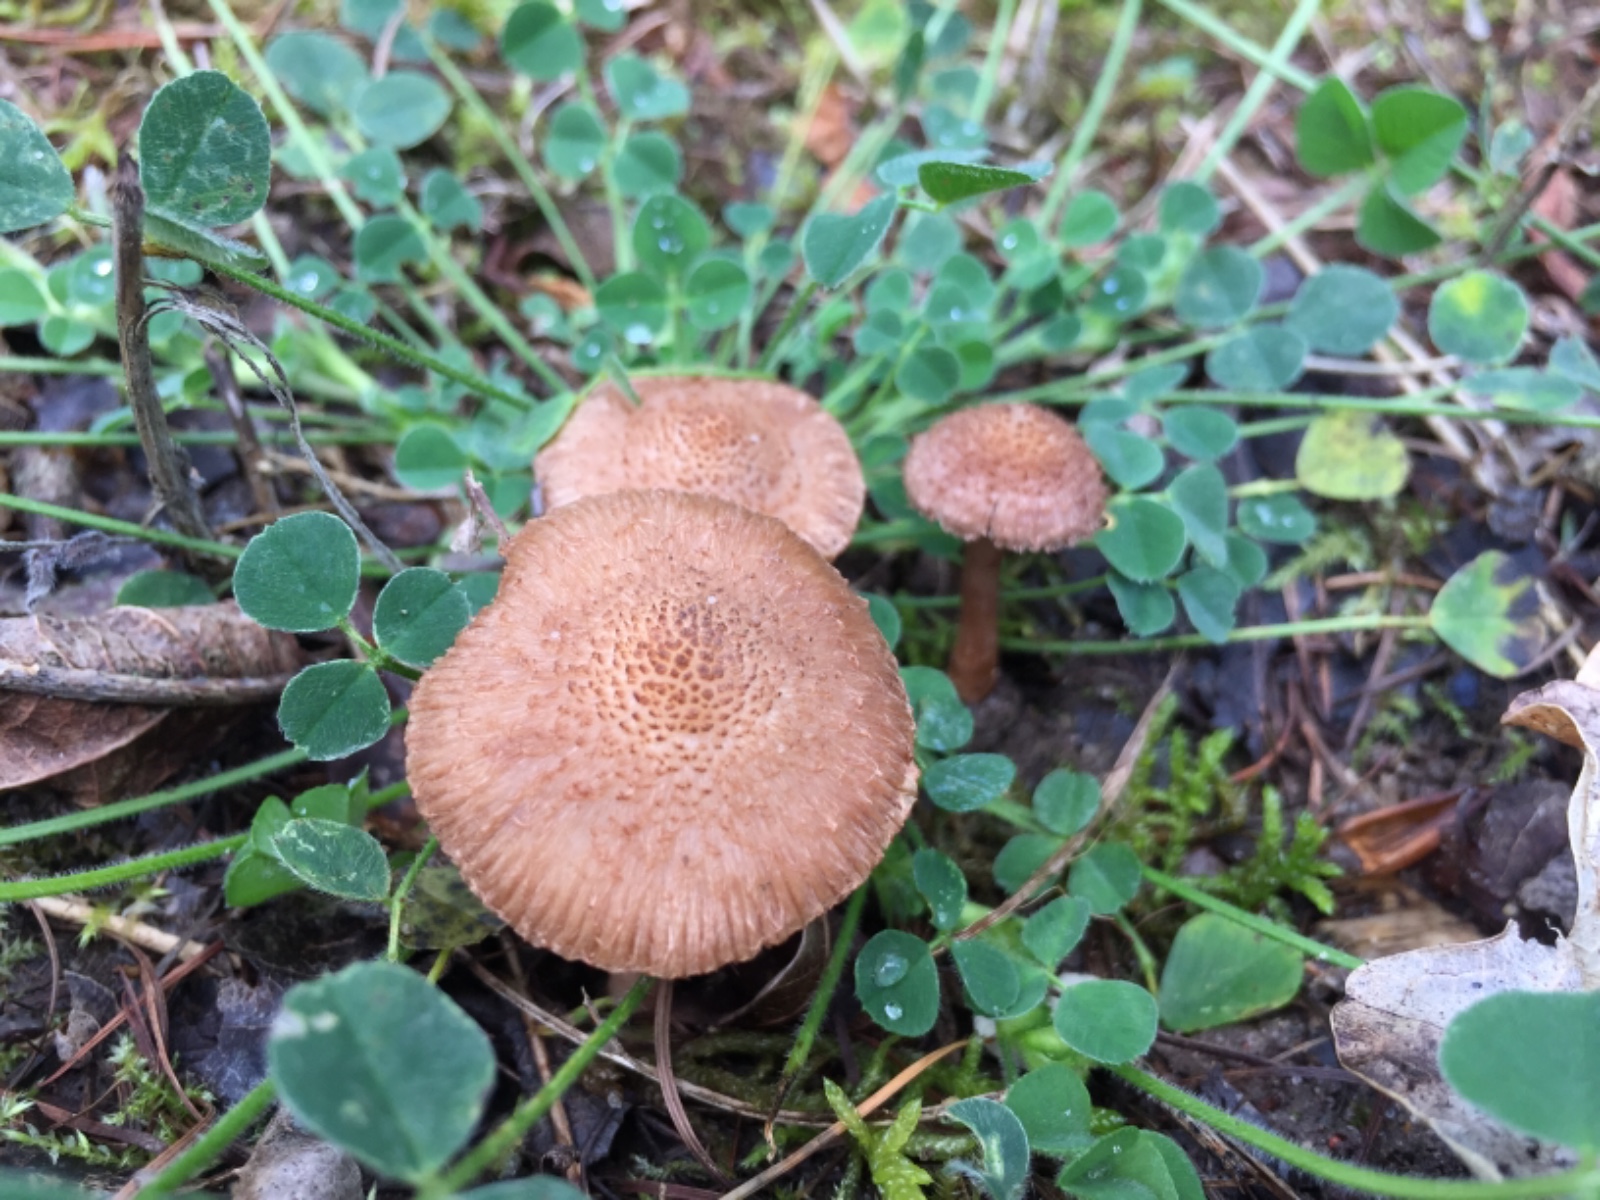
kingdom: Fungi
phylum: Basidiomycota
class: Agaricomycetes
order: Agaricales
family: Inocybaceae
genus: Inocybe
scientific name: Inocybe cincinnata
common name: lillabladet trævlhat
